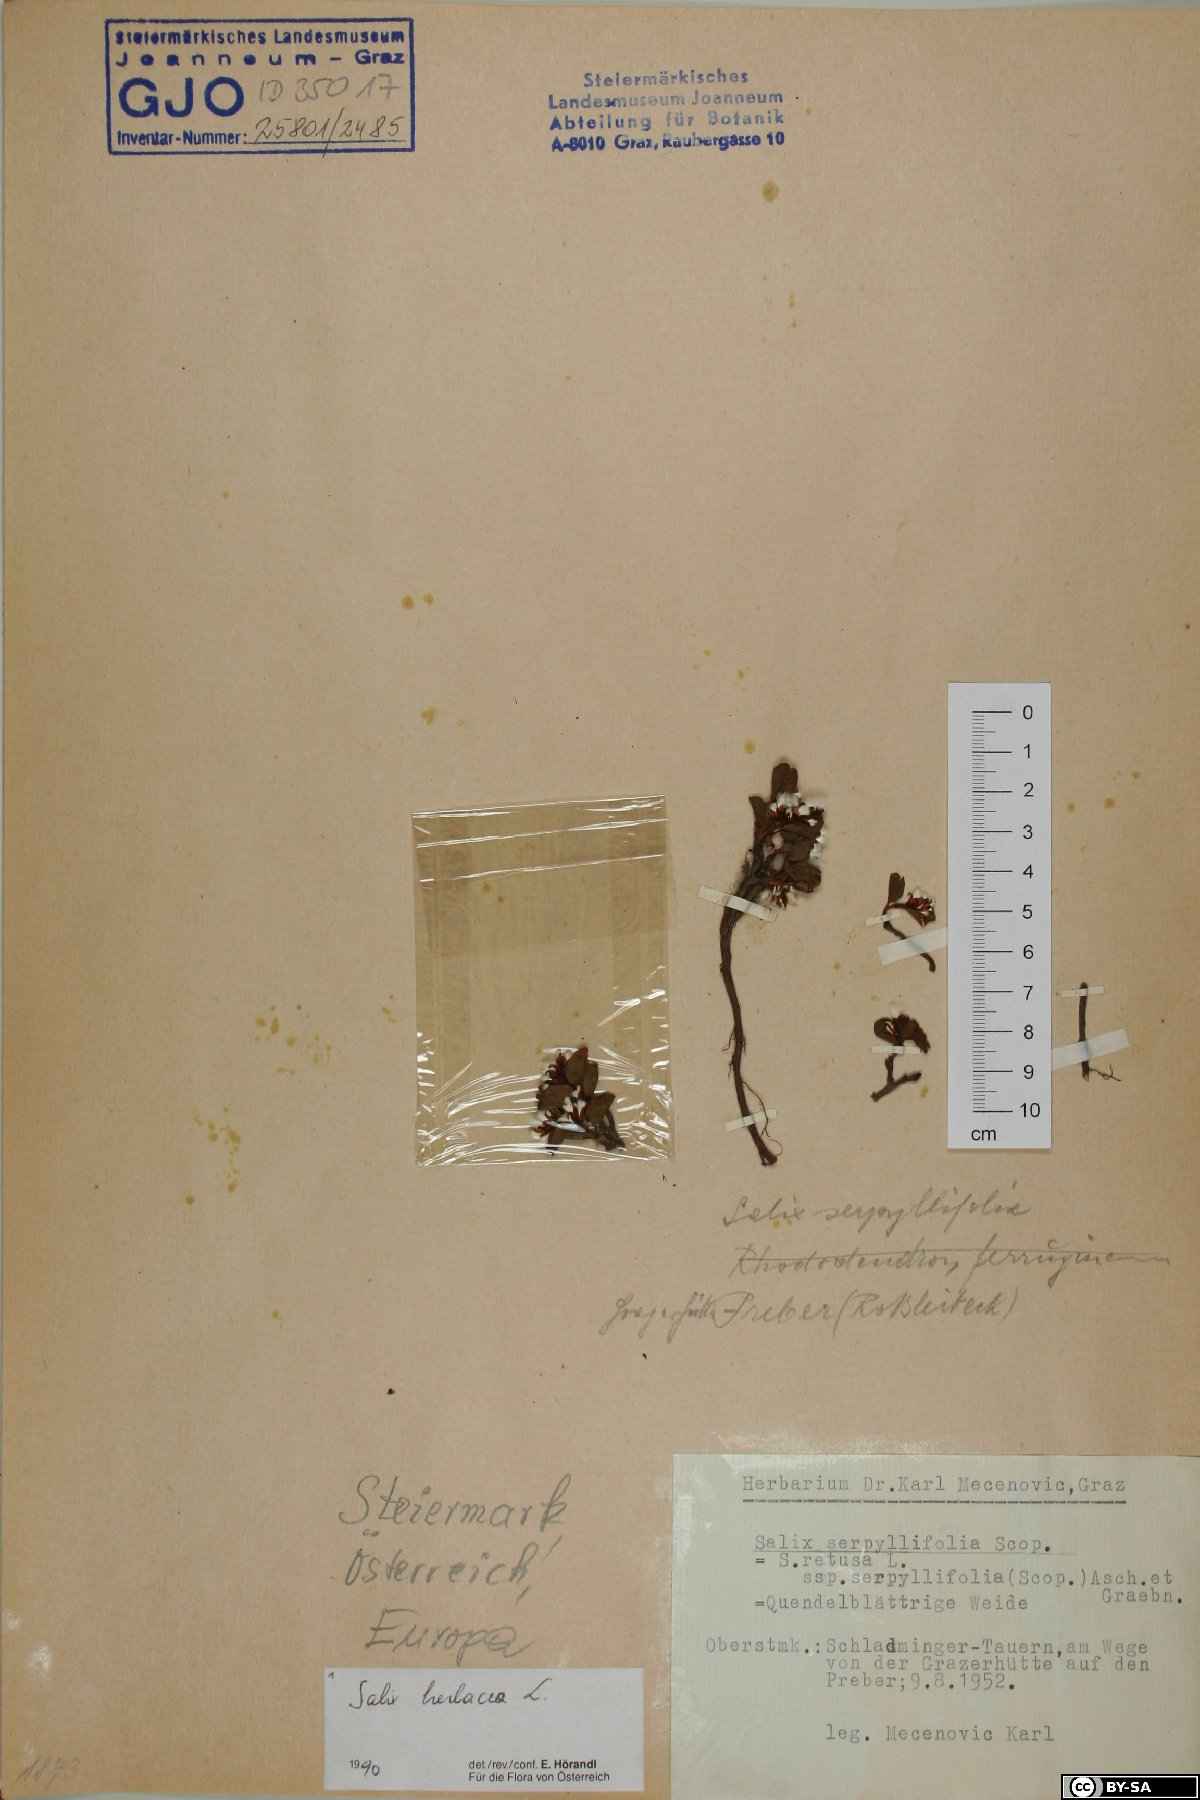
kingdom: Plantae
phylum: Tracheophyta
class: Magnoliopsida
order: Malpighiales
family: Salicaceae
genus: Salix
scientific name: Salix herbacea
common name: Dwarf willow
